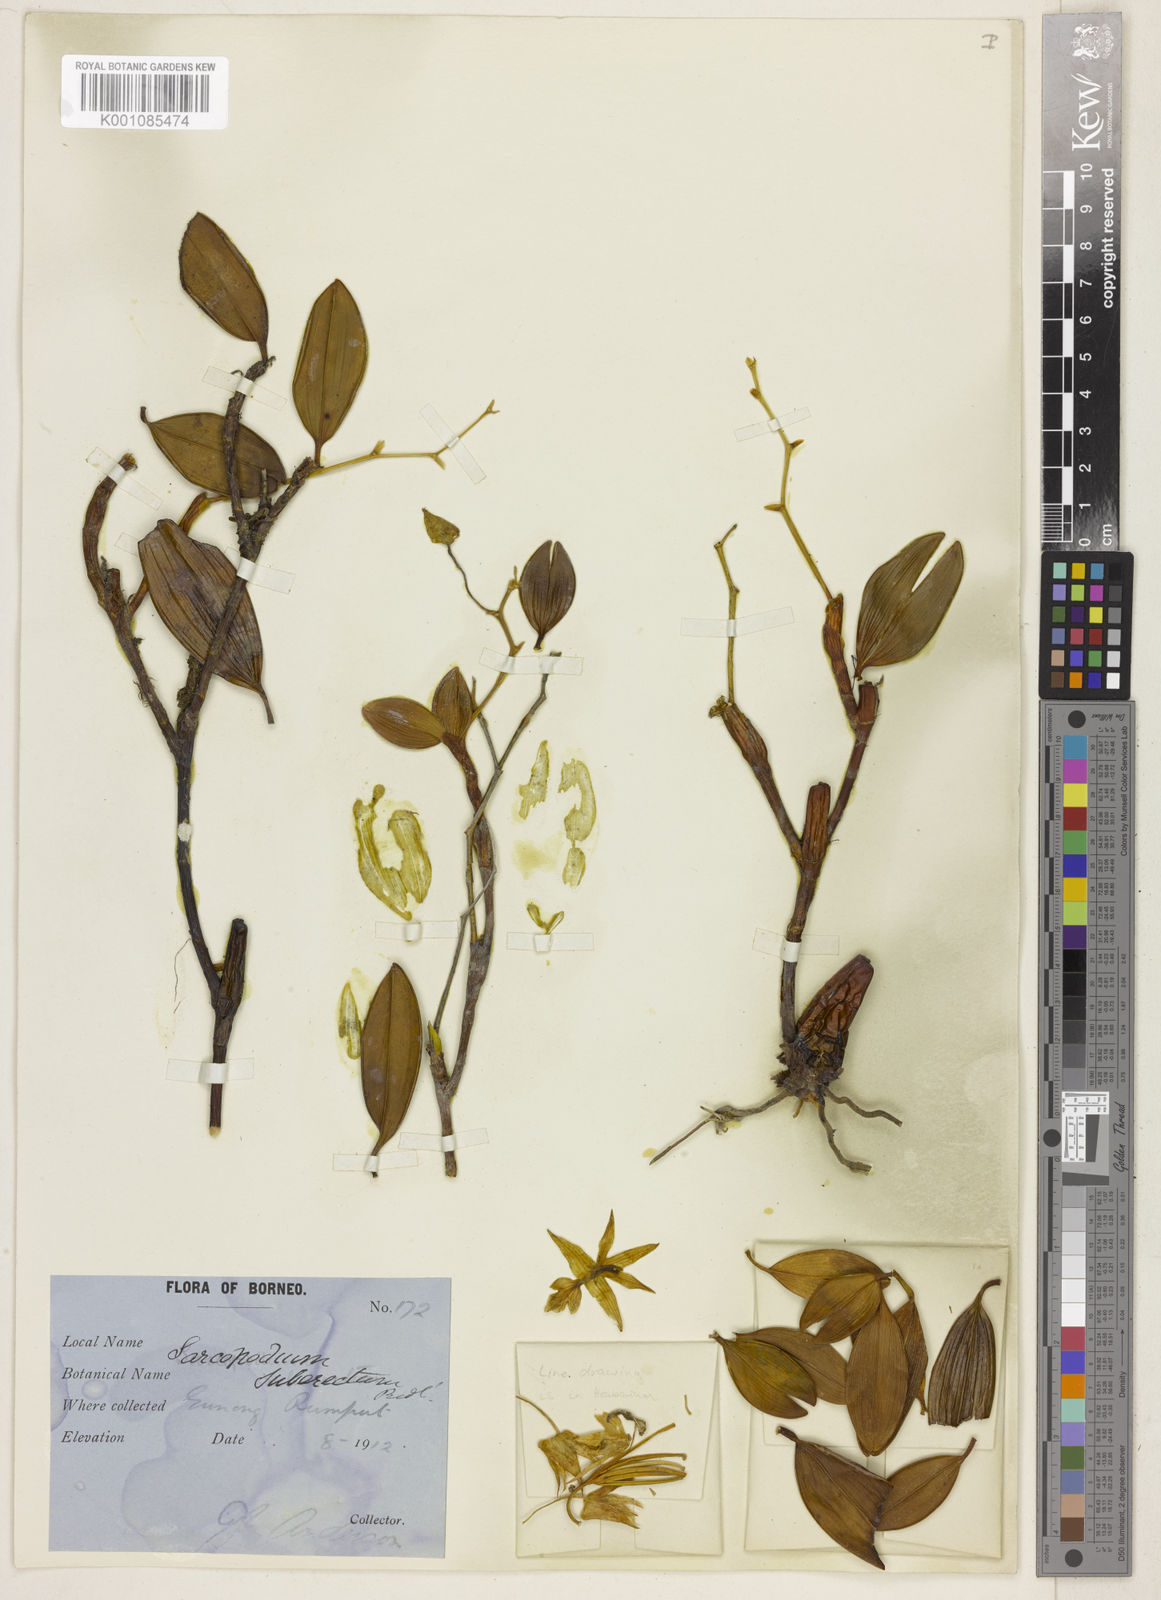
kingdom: Plantae
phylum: Tracheophyta
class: Liliopsida
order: Asparagales
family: Orchidaceae
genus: Dendrobium
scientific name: Dendrobium kinabaluense
